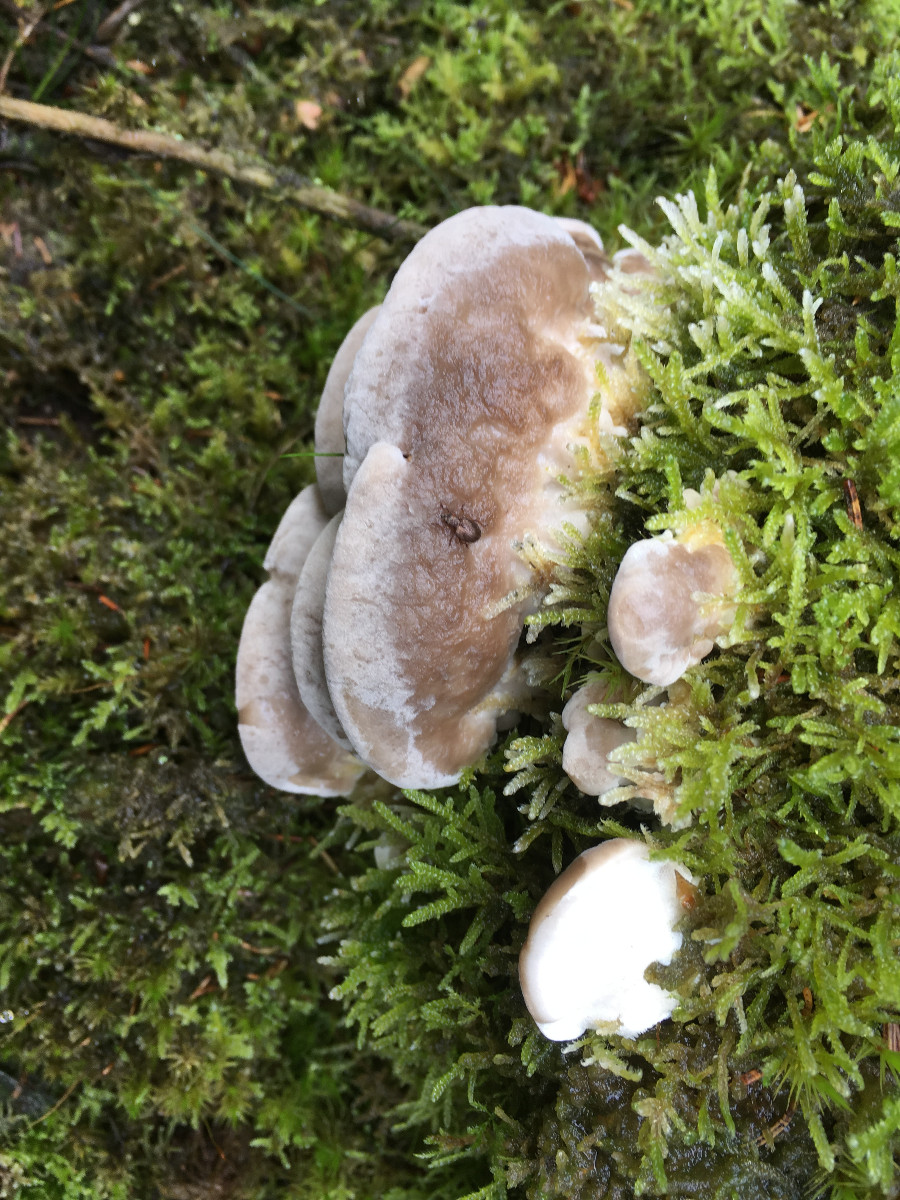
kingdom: Fungi
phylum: Basidiomycota
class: Agaricomycetes
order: Polyporales
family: Phanerochaetaceae
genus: Bjerkandera
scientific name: Bjerkandera adusta
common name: sveden sodporesvamp
